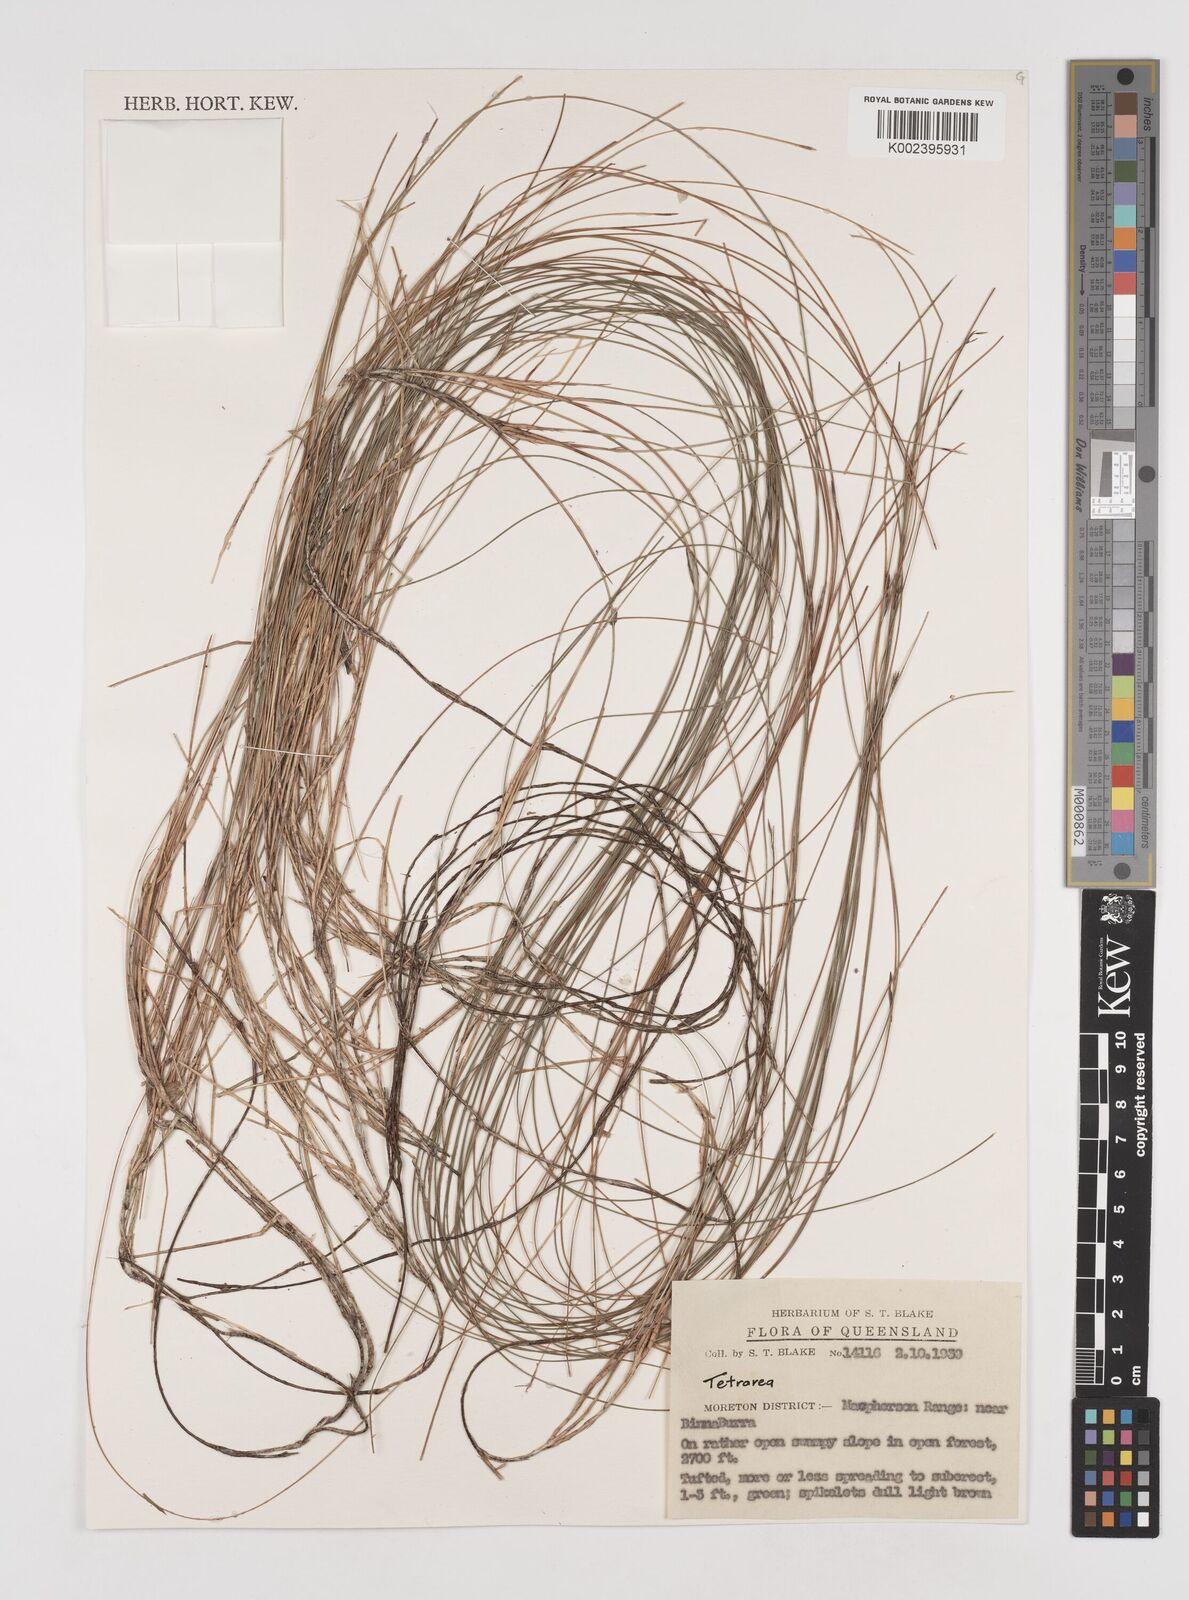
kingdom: Plantae
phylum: Tracheophyta
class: Liliopsida
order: Poales
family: Cyperaceae
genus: Tetraria
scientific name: Tetraria capillaris
